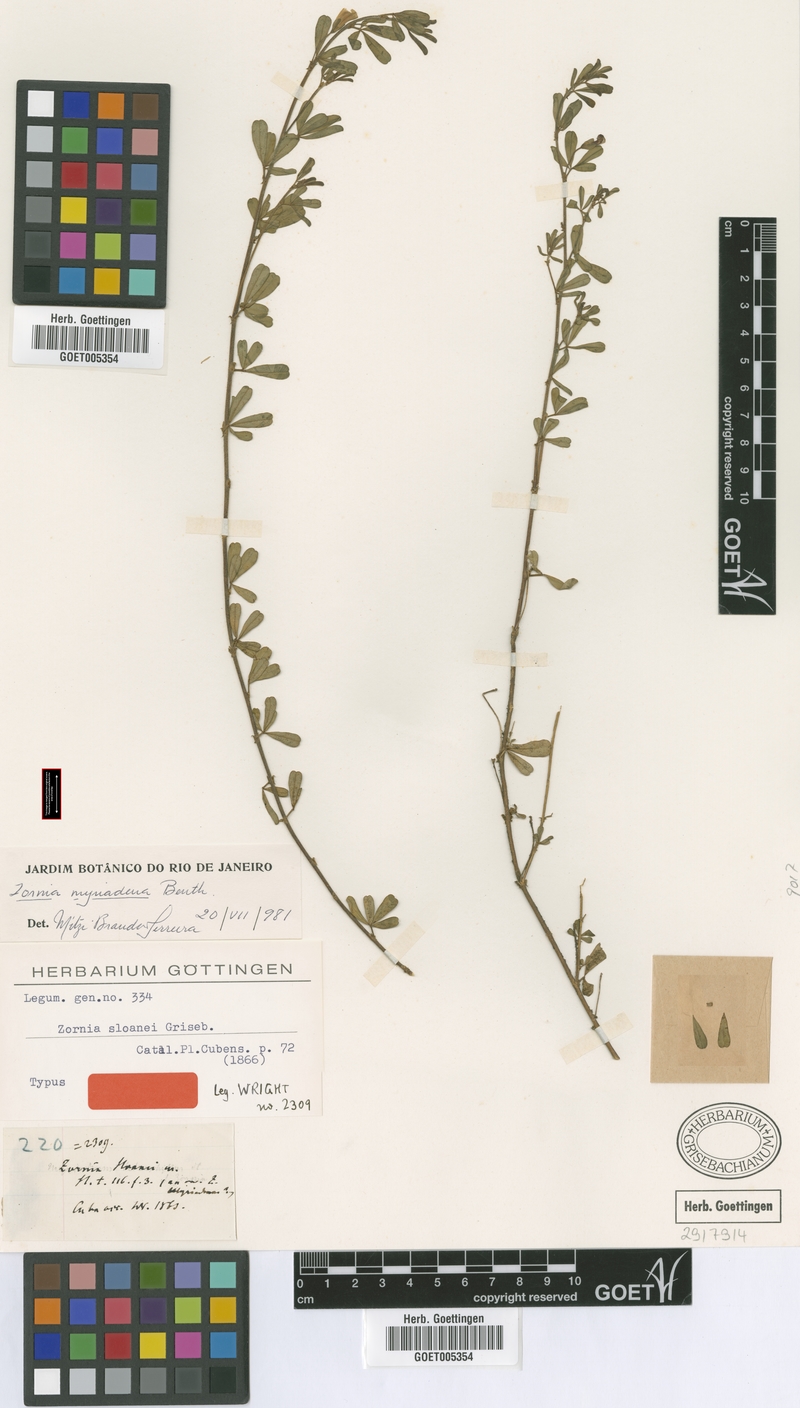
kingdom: Plantae
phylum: Tracheophyta
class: Magnoliopsida
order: Fabales
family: Fabaceae
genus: Zornia
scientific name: Zornia myriadena
